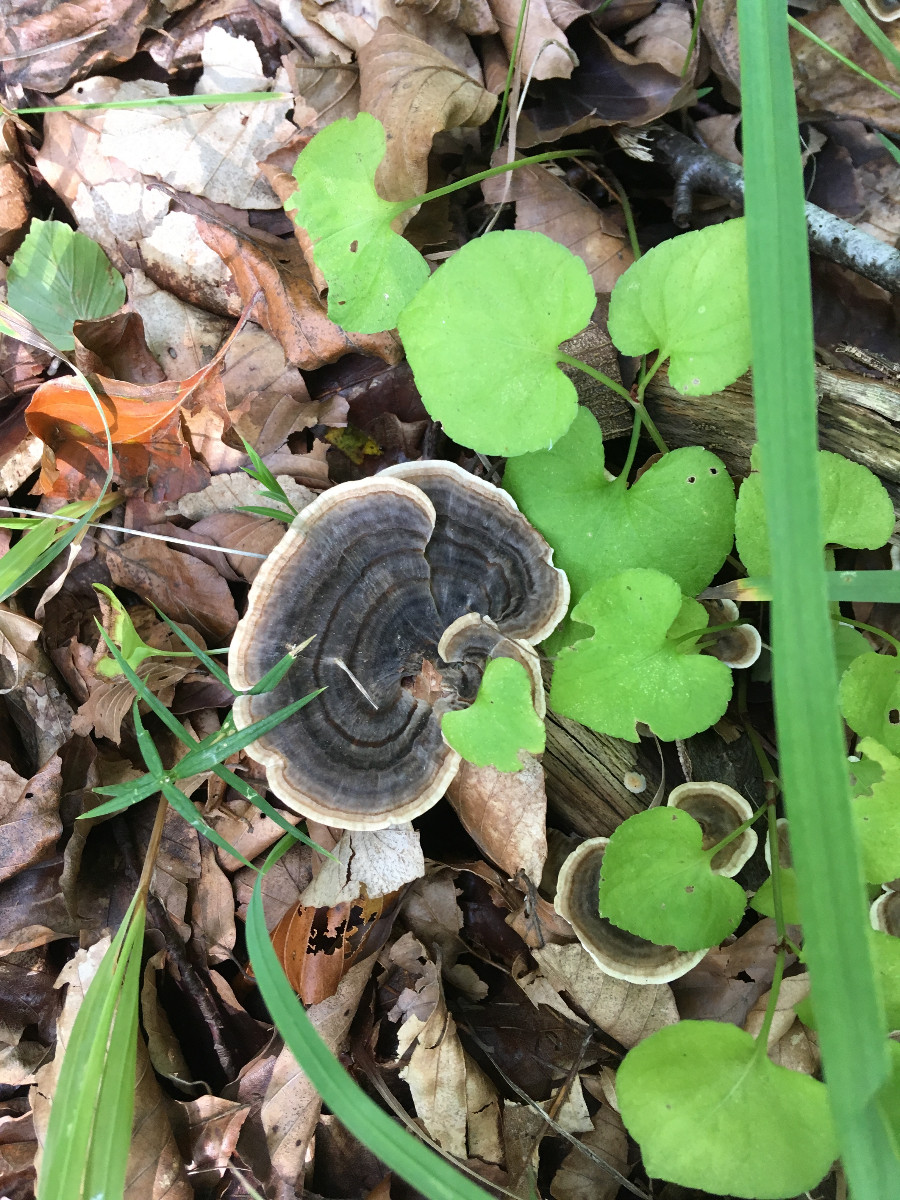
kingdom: Fungi
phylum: Basidiomycota
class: Agaricomycetes
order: Polyporales
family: Polyporaceae
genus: Trametes
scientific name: Trametes versicolor
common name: broget læderporesvamp
